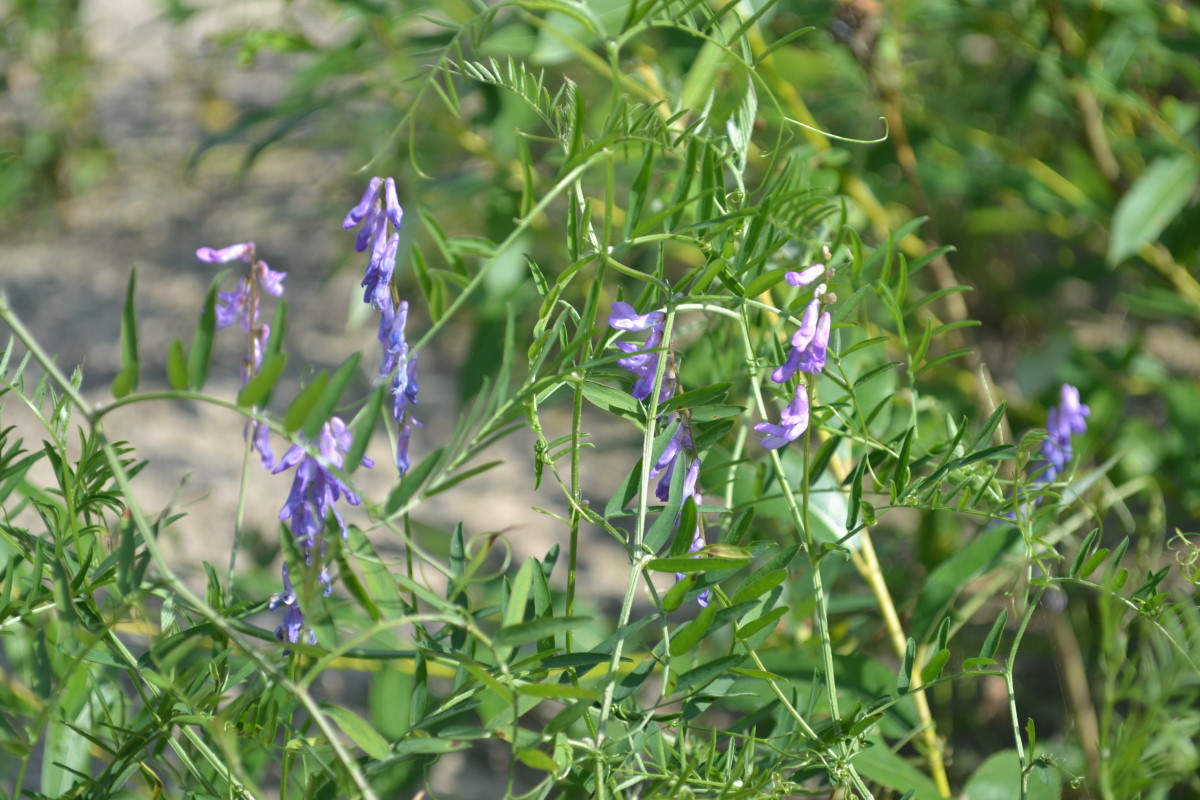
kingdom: Plantae
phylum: Tracheophyta
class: Magnoliopsida
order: Fabales
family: Fabaceae
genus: Vicia
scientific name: Vicia cracca
